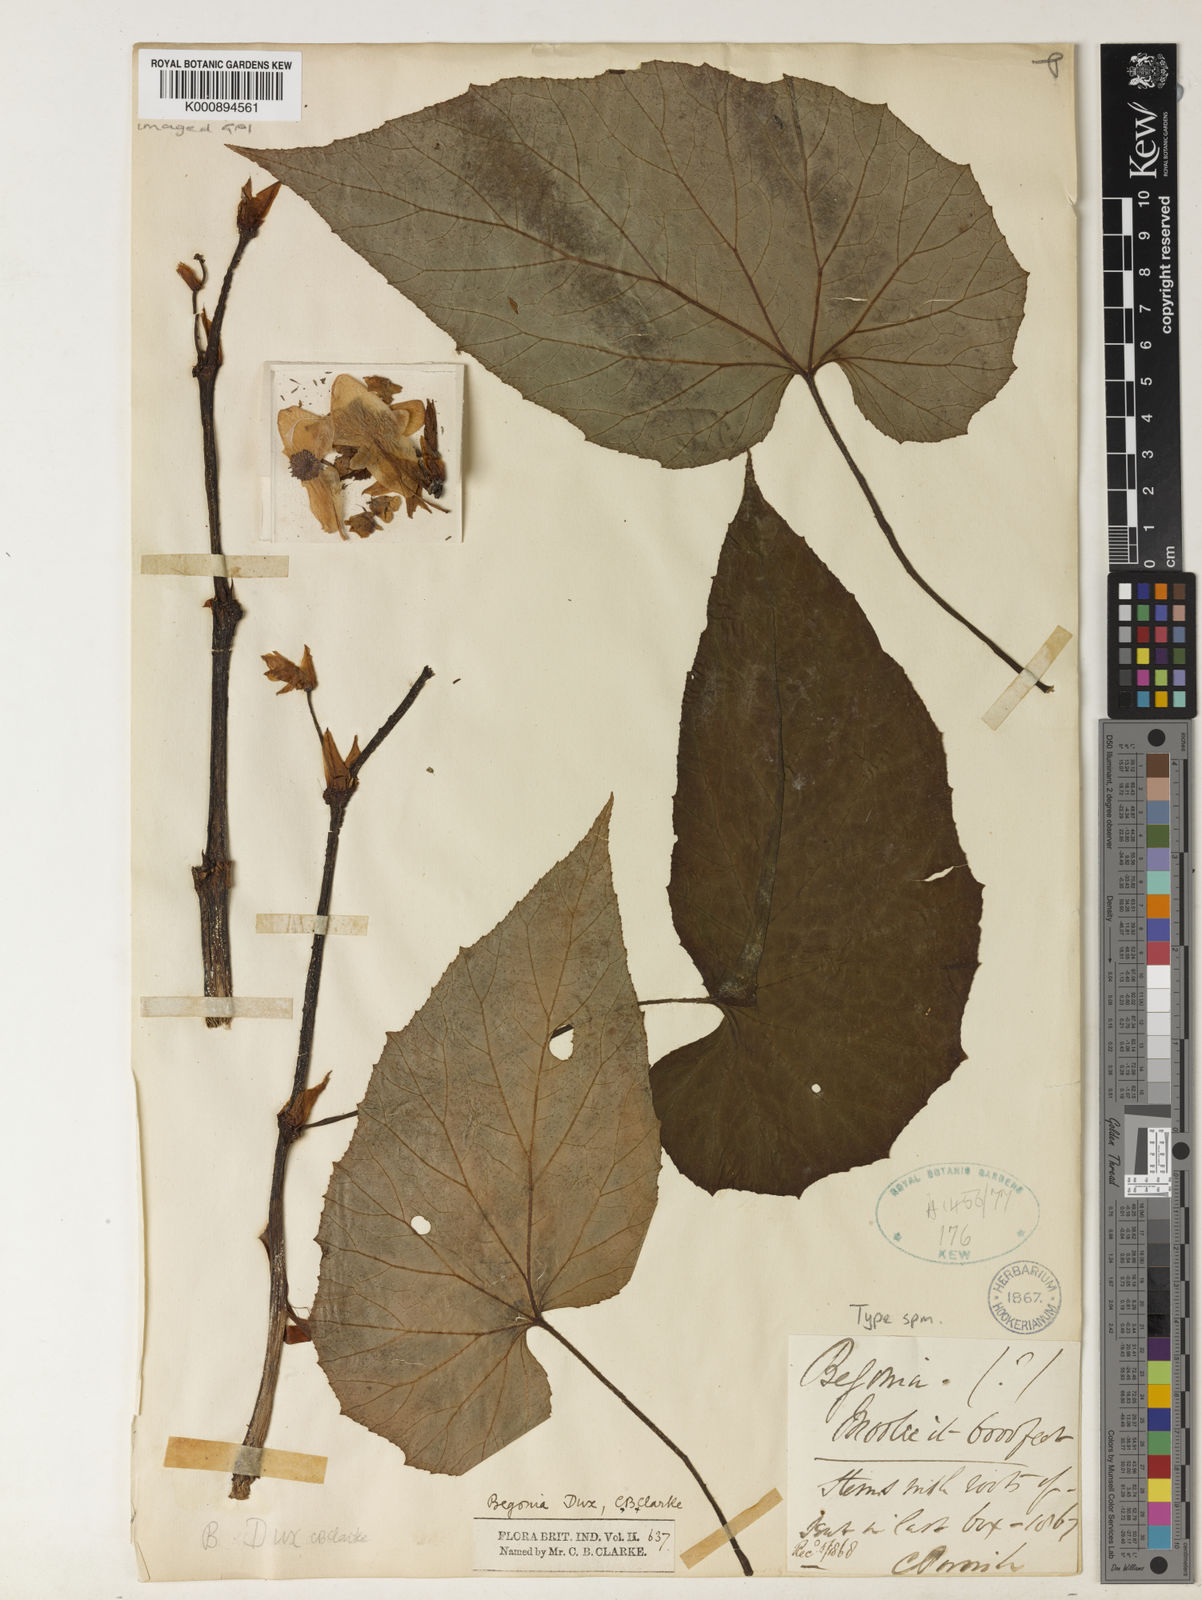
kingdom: Plantae
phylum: Tracheophyta
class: Magnoliopsida
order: Cucurbitales
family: Begoniaceae
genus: Begonia
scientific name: Begonia dux
